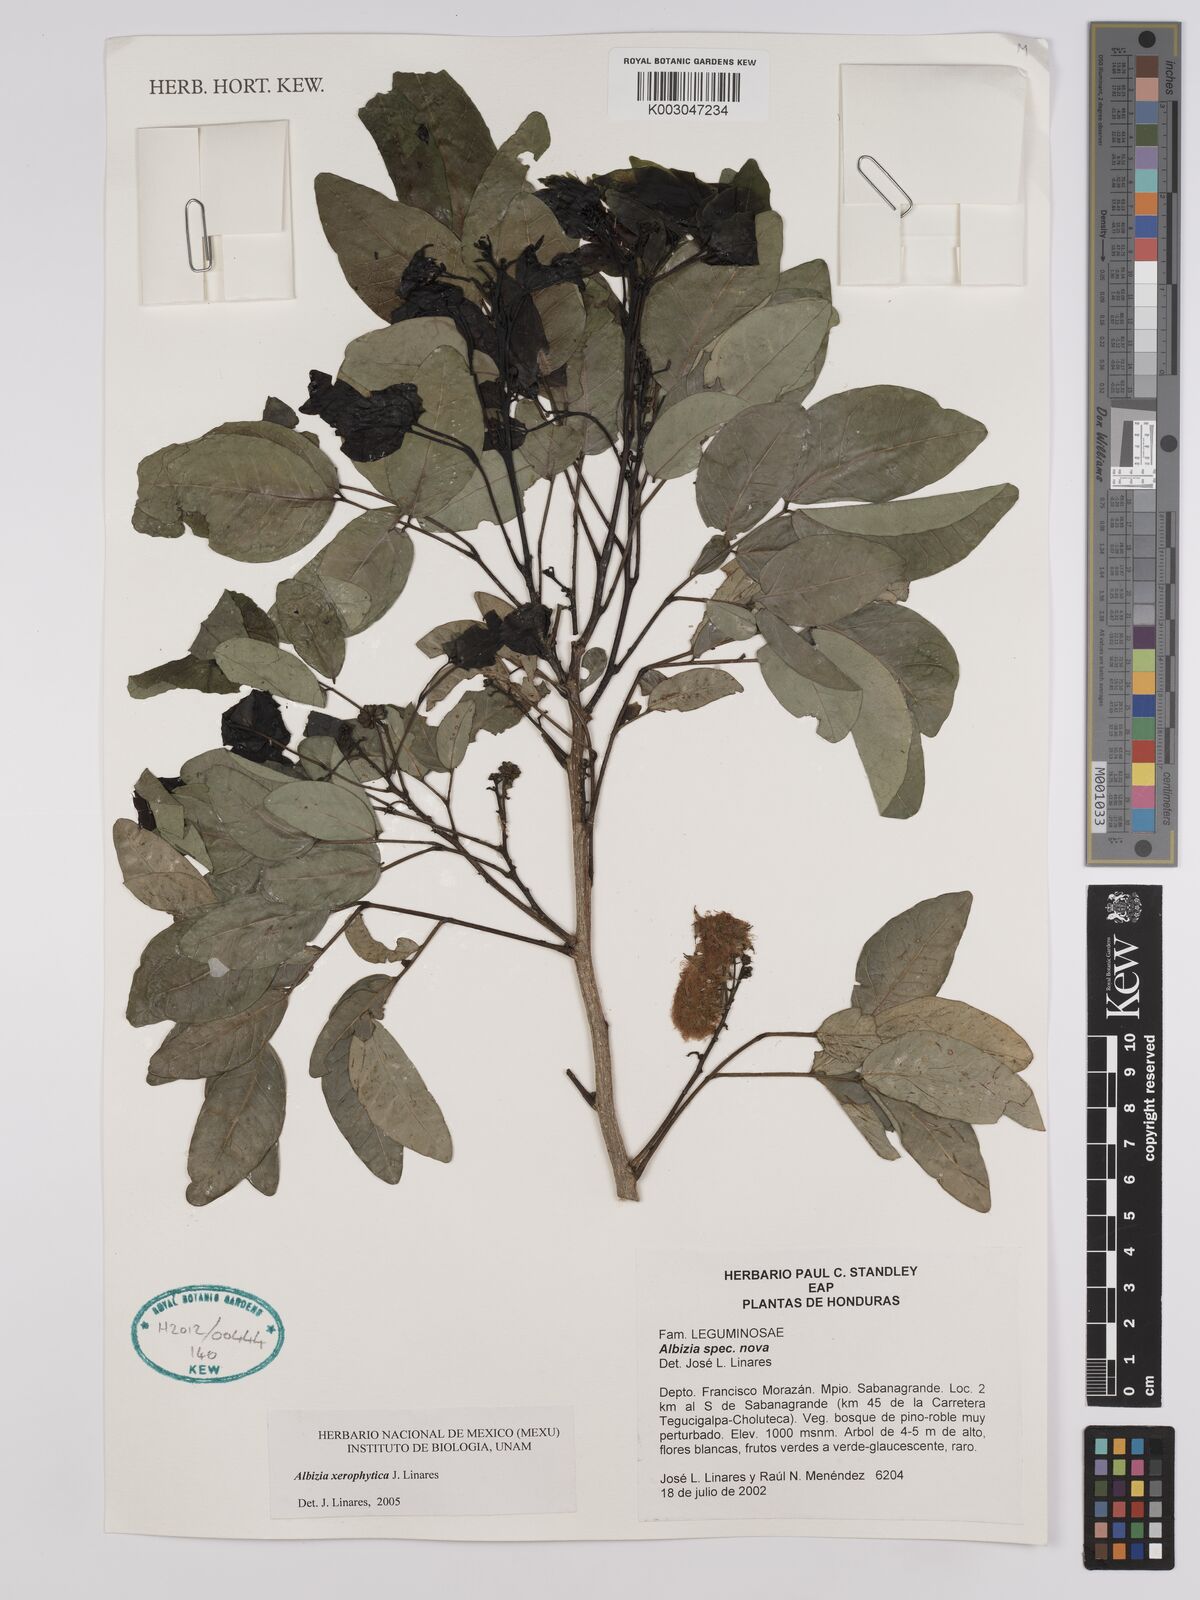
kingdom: Plantae
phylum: Tracheophyta
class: Magnoliopsida
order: Fabales
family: Fabaceae
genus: Albizia
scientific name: Albizia xerophytica
